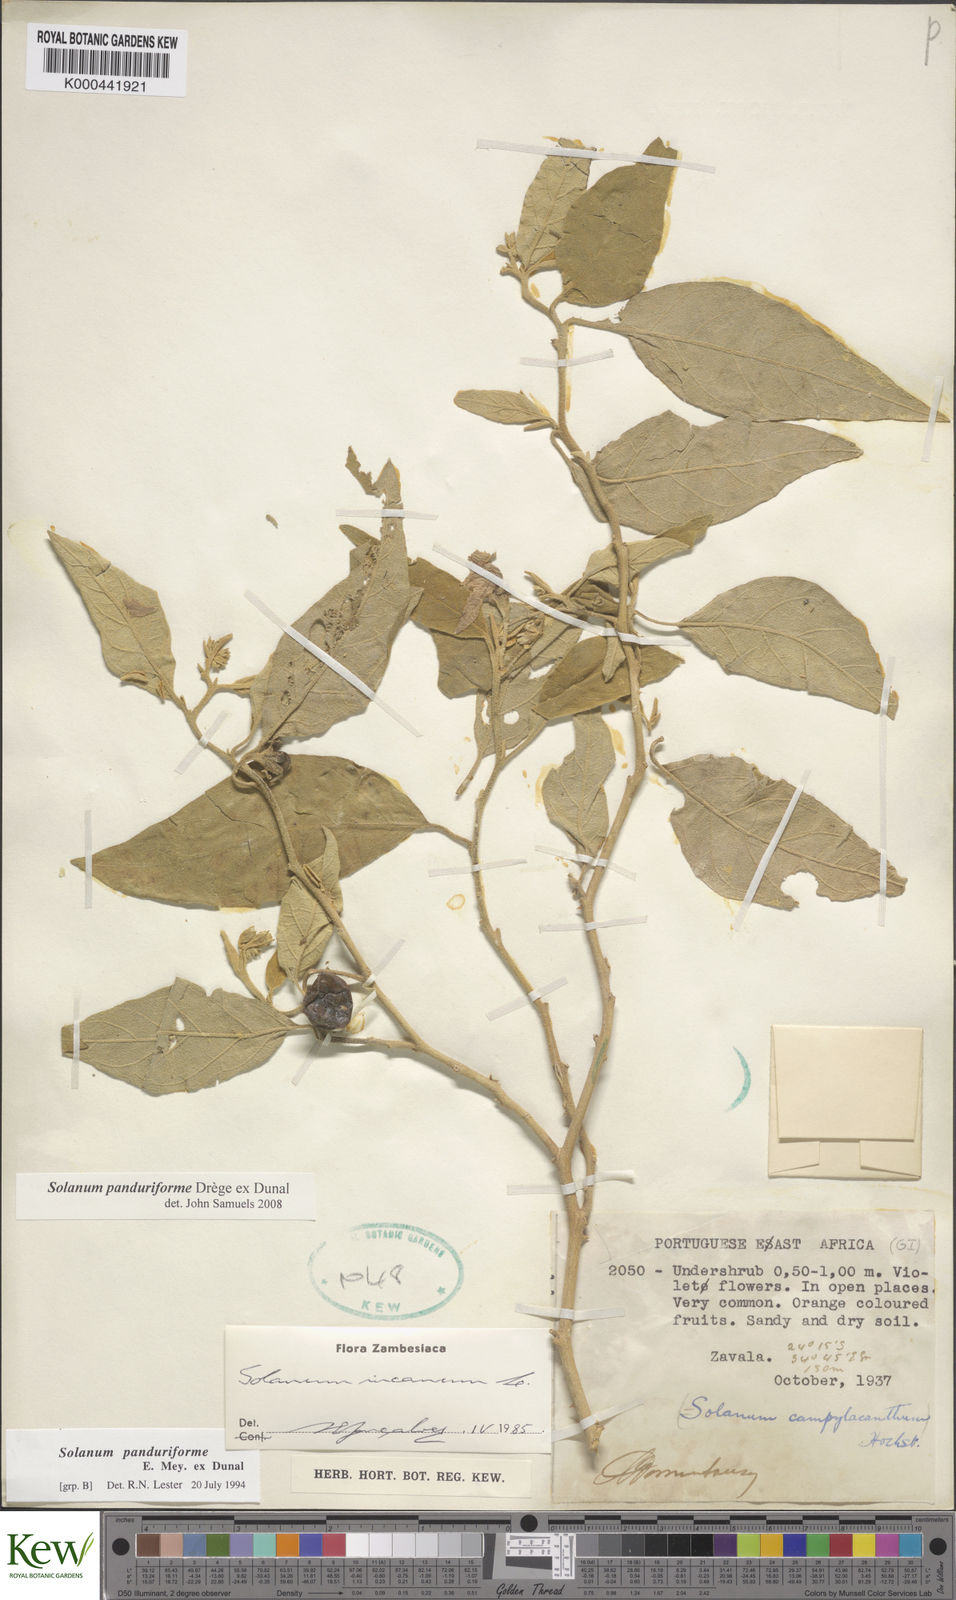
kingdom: Plantae
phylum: Tracheophyta
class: Magnoliopsida
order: Solanales
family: Solanaceae
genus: Solanum
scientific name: Solanum campylacanthum
